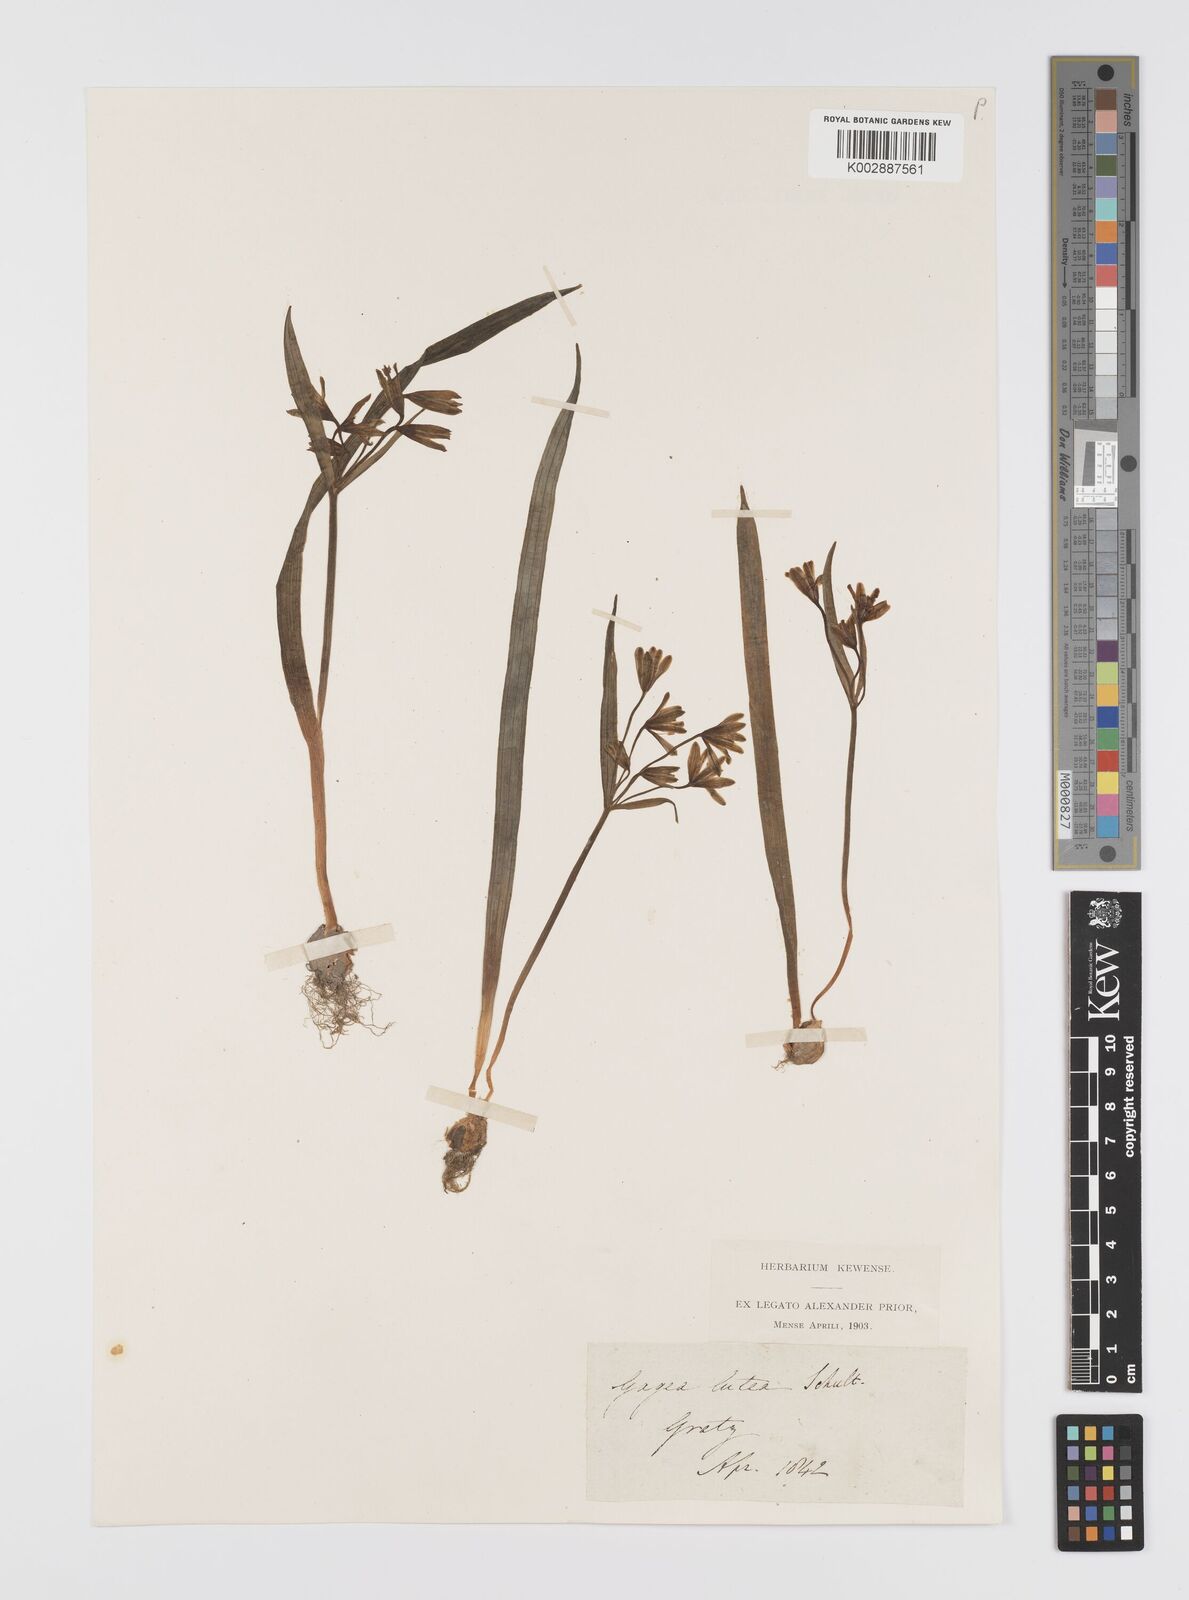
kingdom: Plantae
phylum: Tracheophyta
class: Liliopsida
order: Liliales
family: Liliaceae
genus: Gagea
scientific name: Gagea lutea
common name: Yellow star-of-bethlehem
